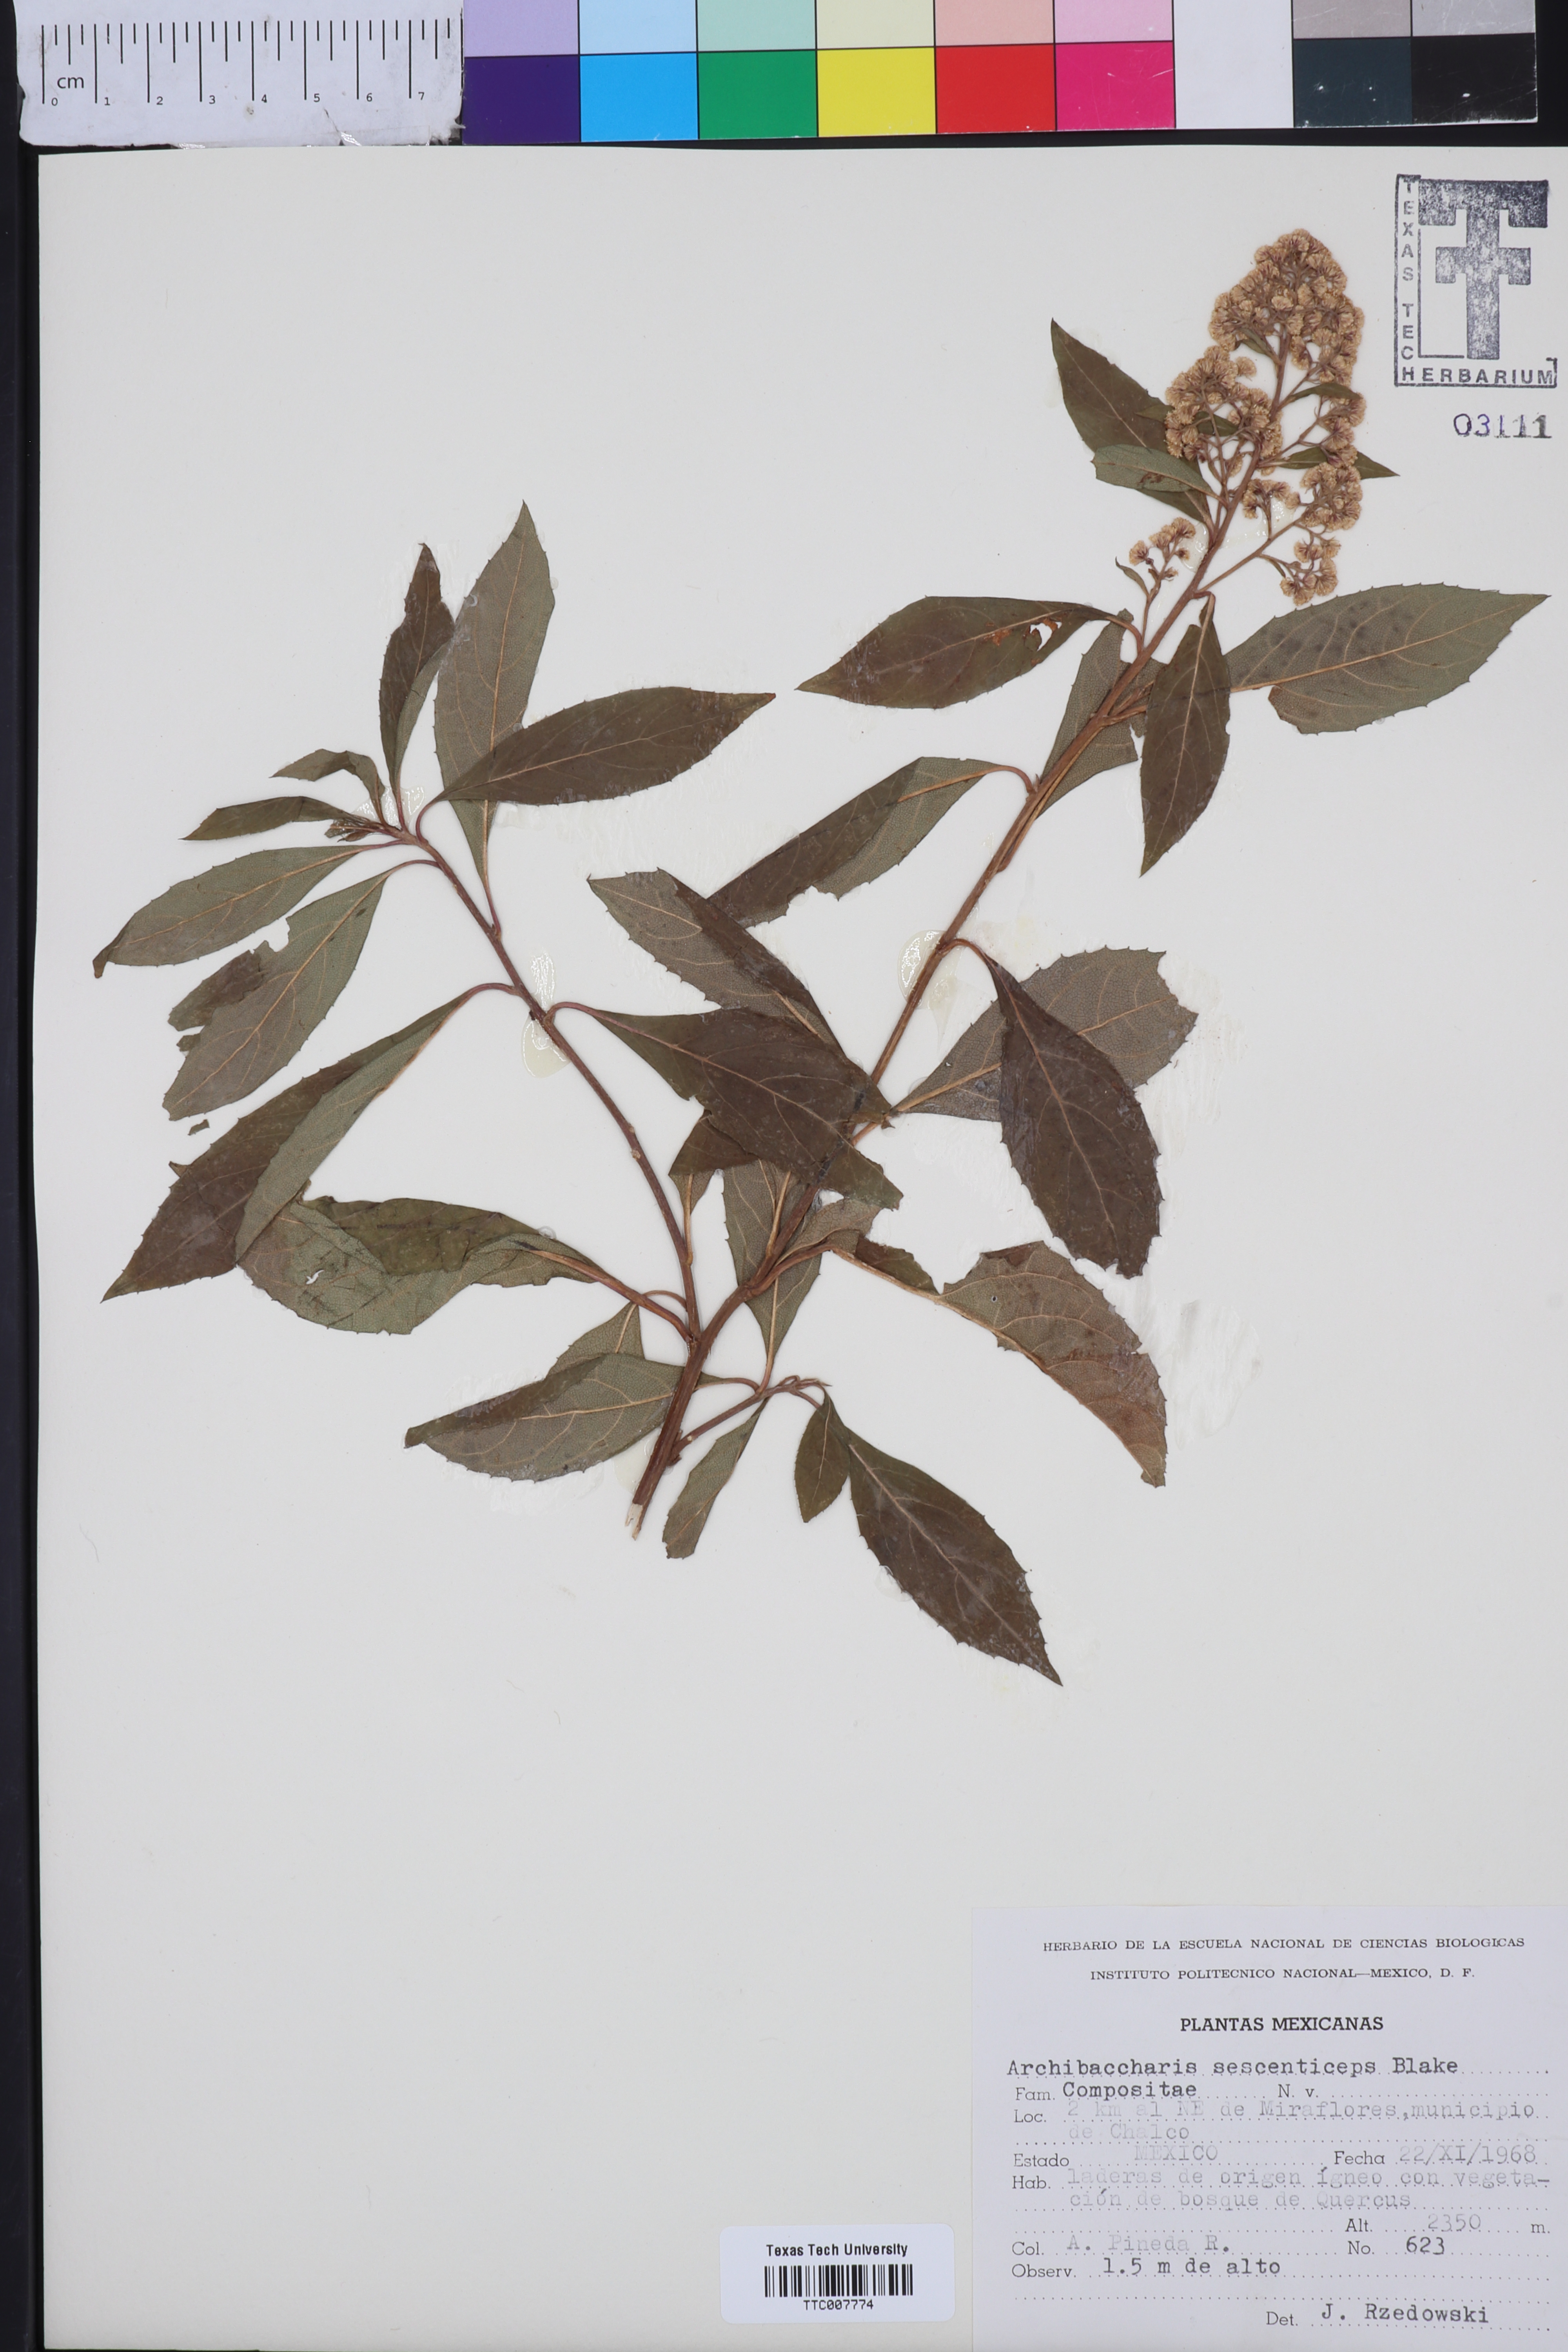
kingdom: Plantae
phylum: Tracheophyta
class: Magnoliopsida
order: Asterales
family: Asteraceae
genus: Archibaccharis
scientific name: Archibaccharis asperifolia
